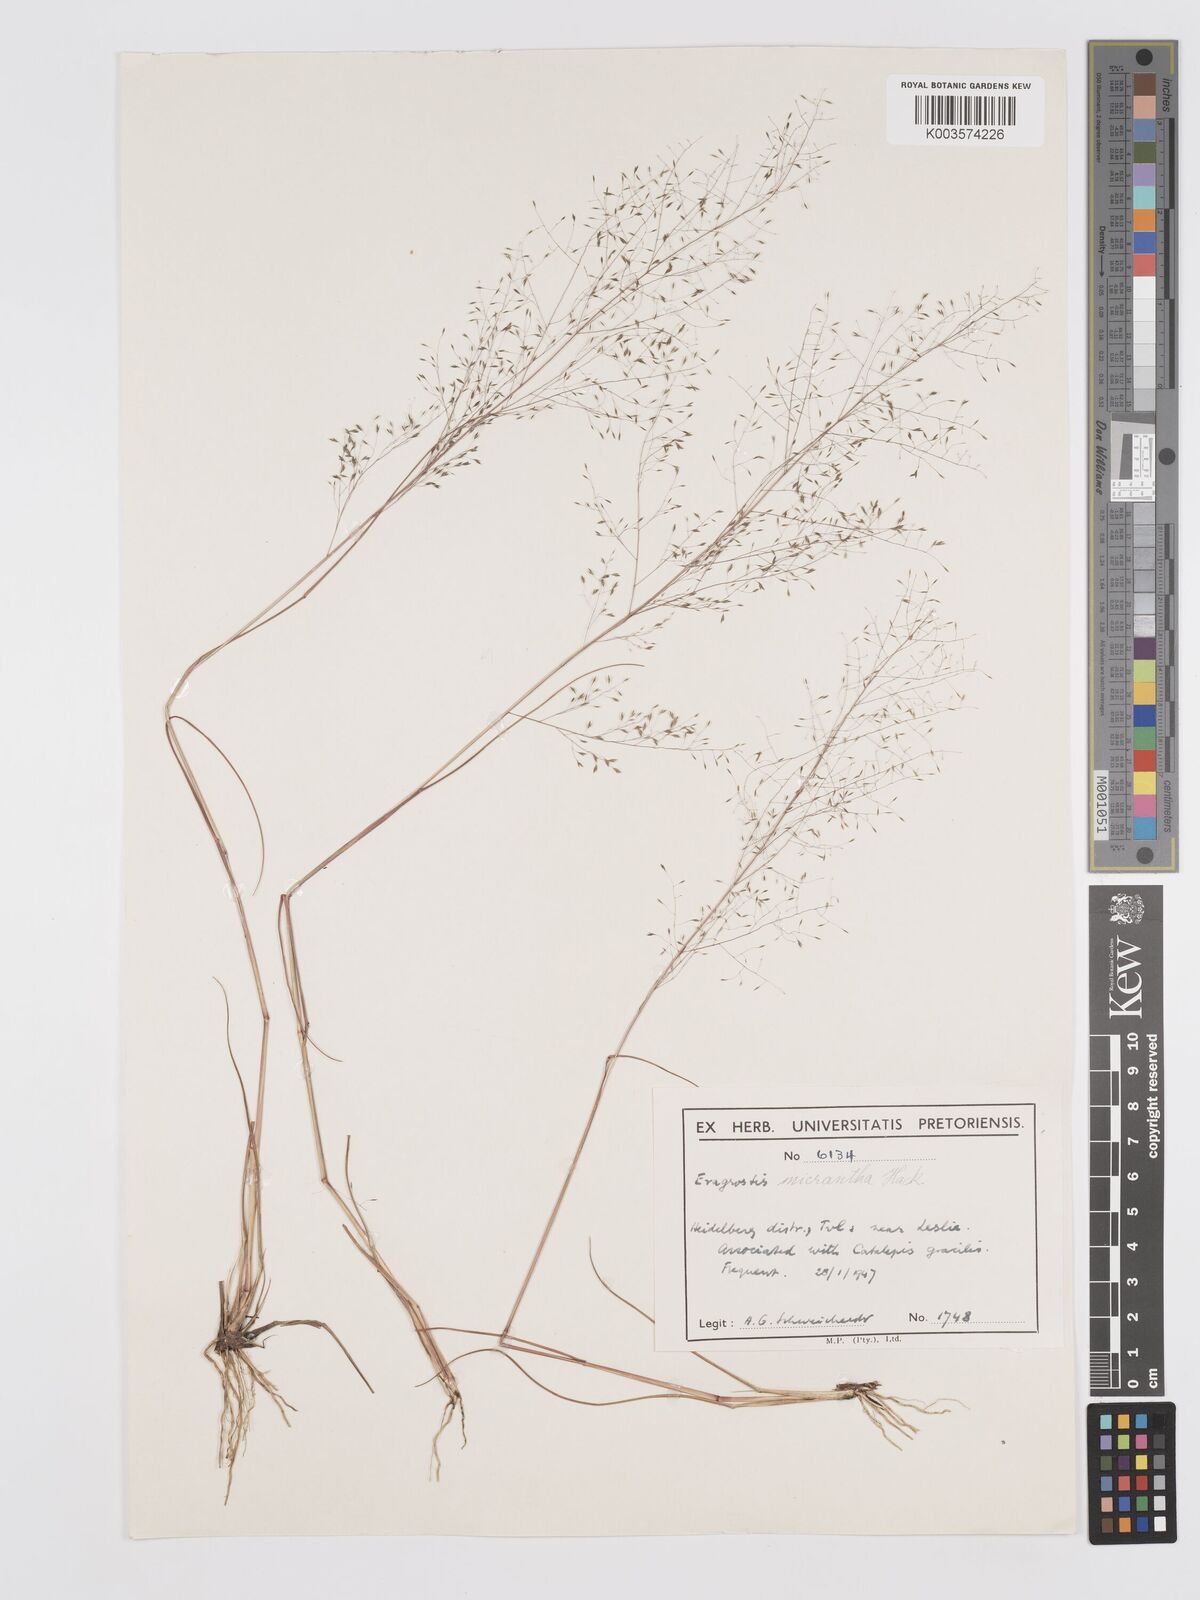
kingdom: Plantae
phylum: Tracheophyta
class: Liliopsida
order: Poales
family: Poaceae
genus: Eragrostis
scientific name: Eragrostis micrantha
